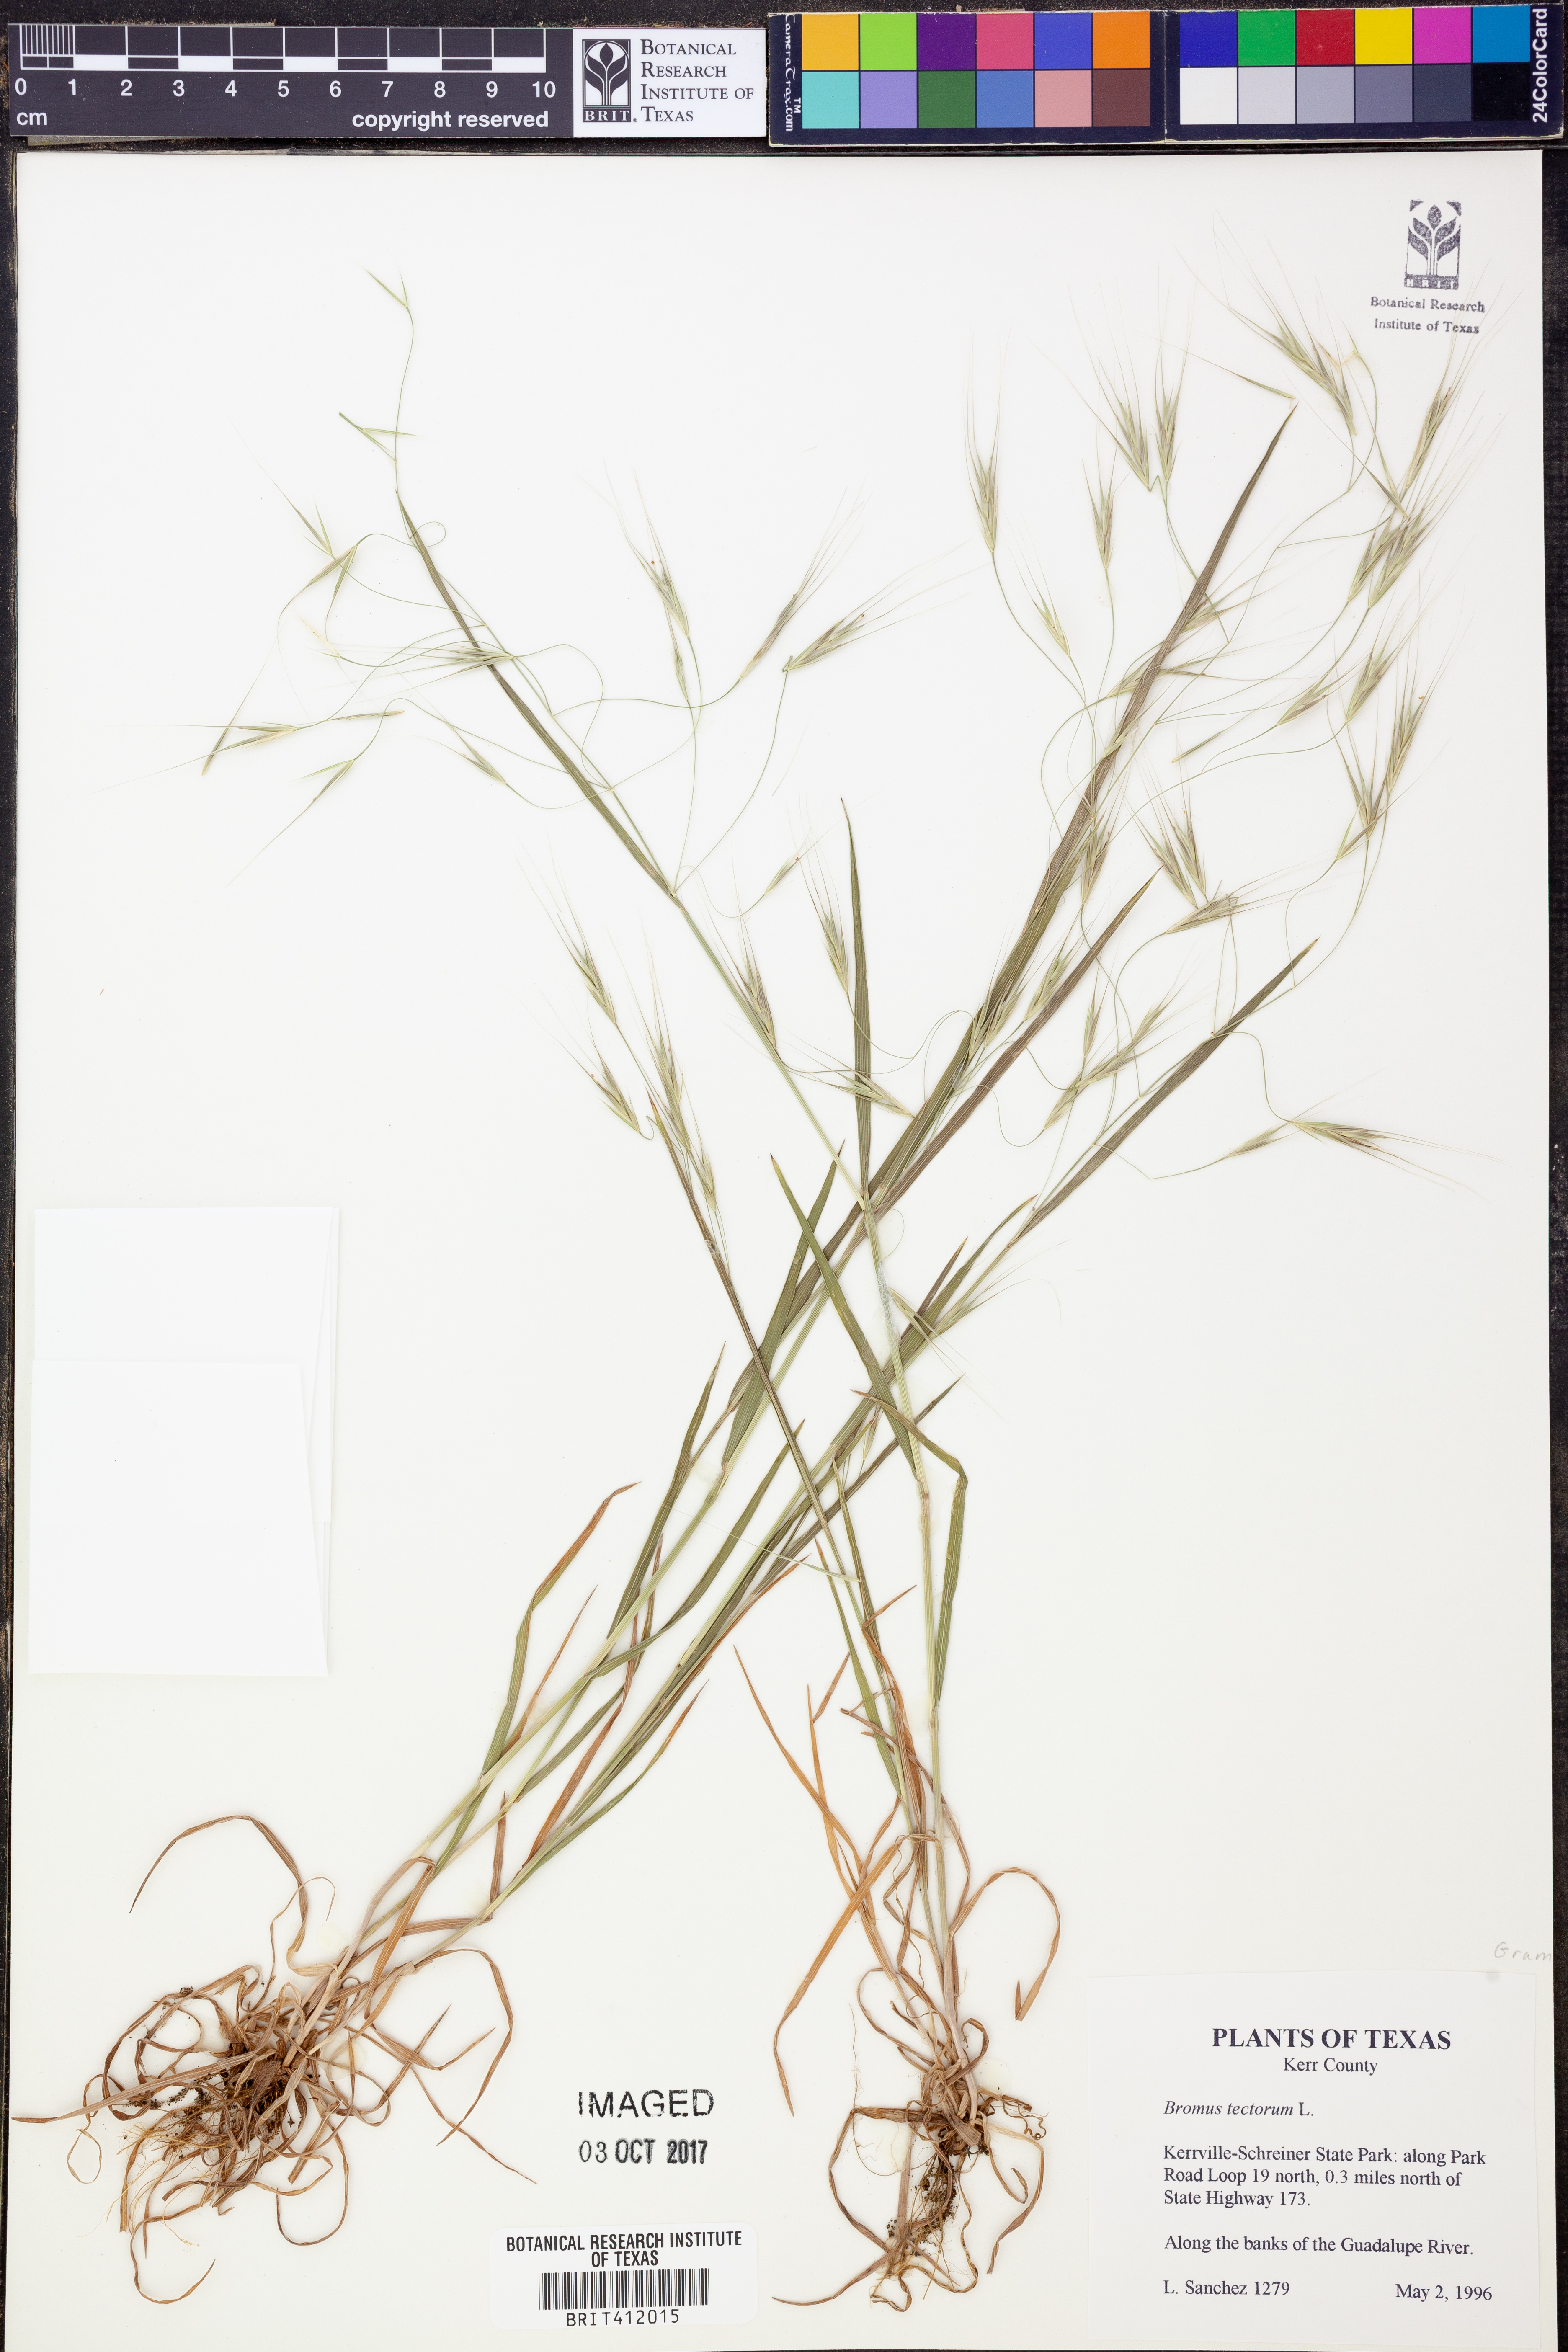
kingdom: Plantae
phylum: Tracheophyta
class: Liliopsida
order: Poales
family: Poaceae
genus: Bromus
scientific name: Bromus tectorum
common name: Cheatgrass
